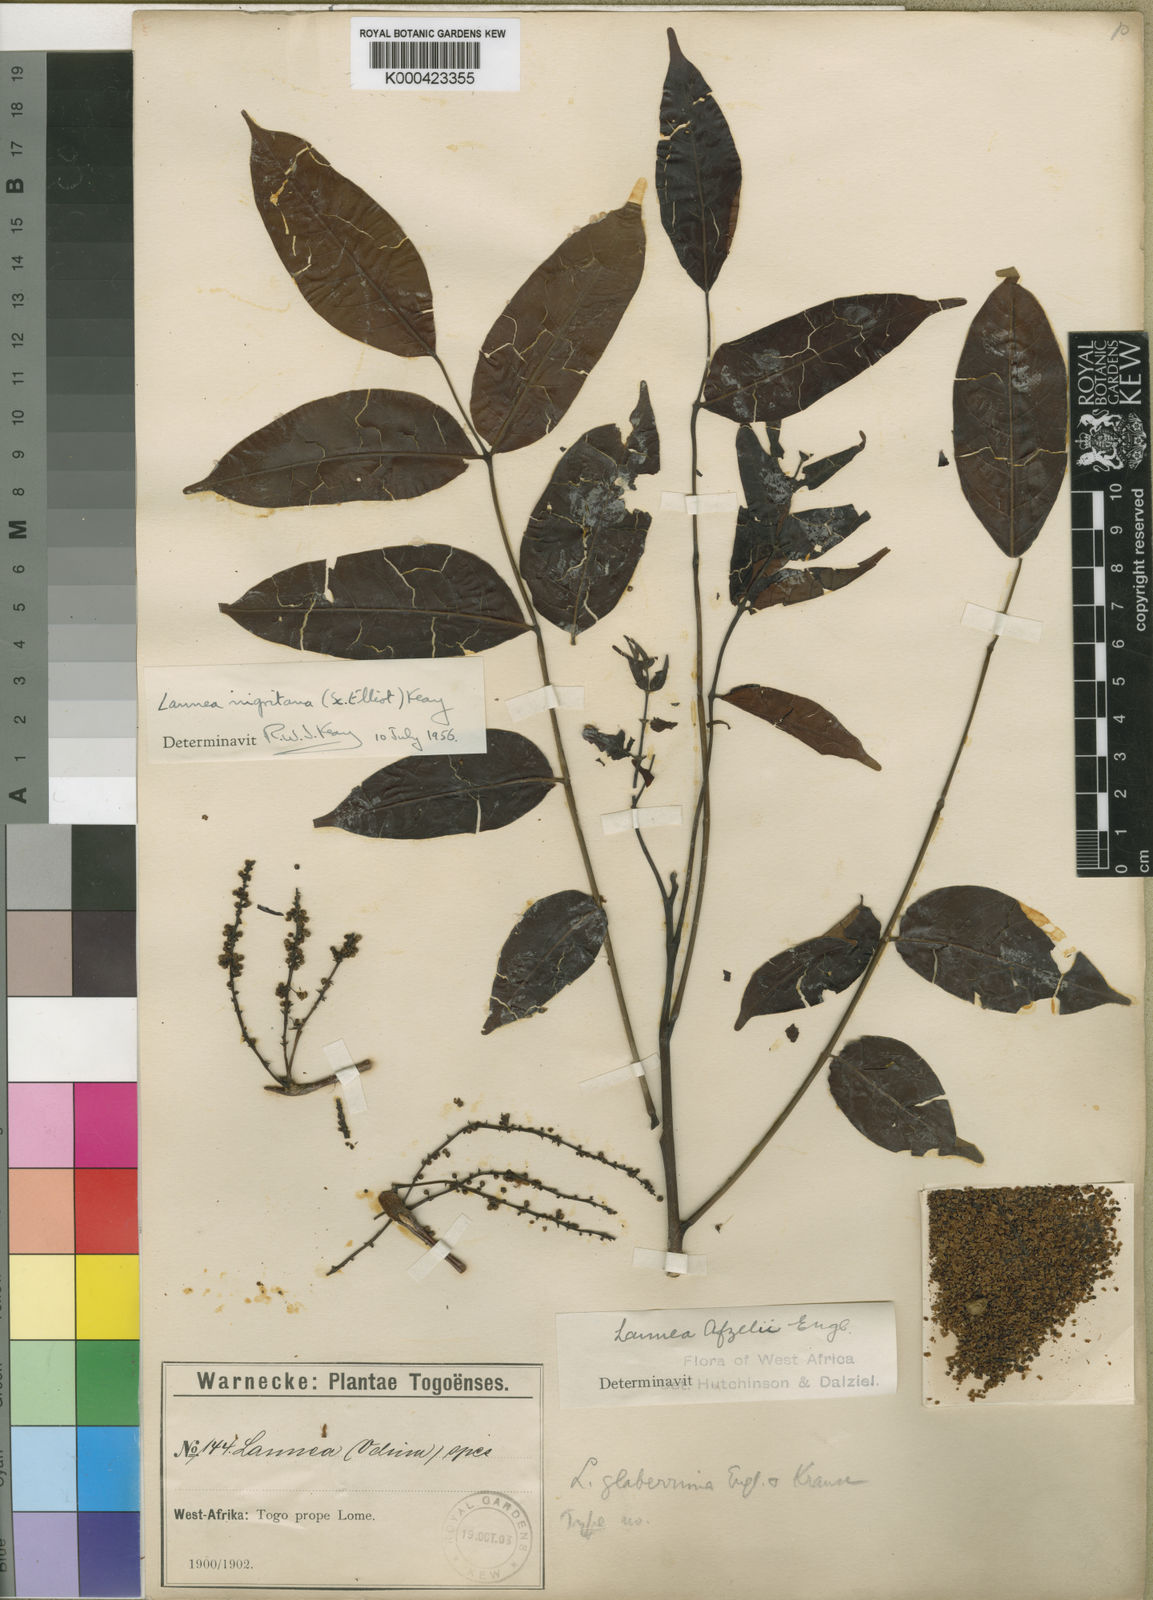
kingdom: Plantae
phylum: Tracheophyta
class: Magnoliopsida
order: Sapindales
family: Anacardiaceae
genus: Lannea
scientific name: Lannea nigritana
